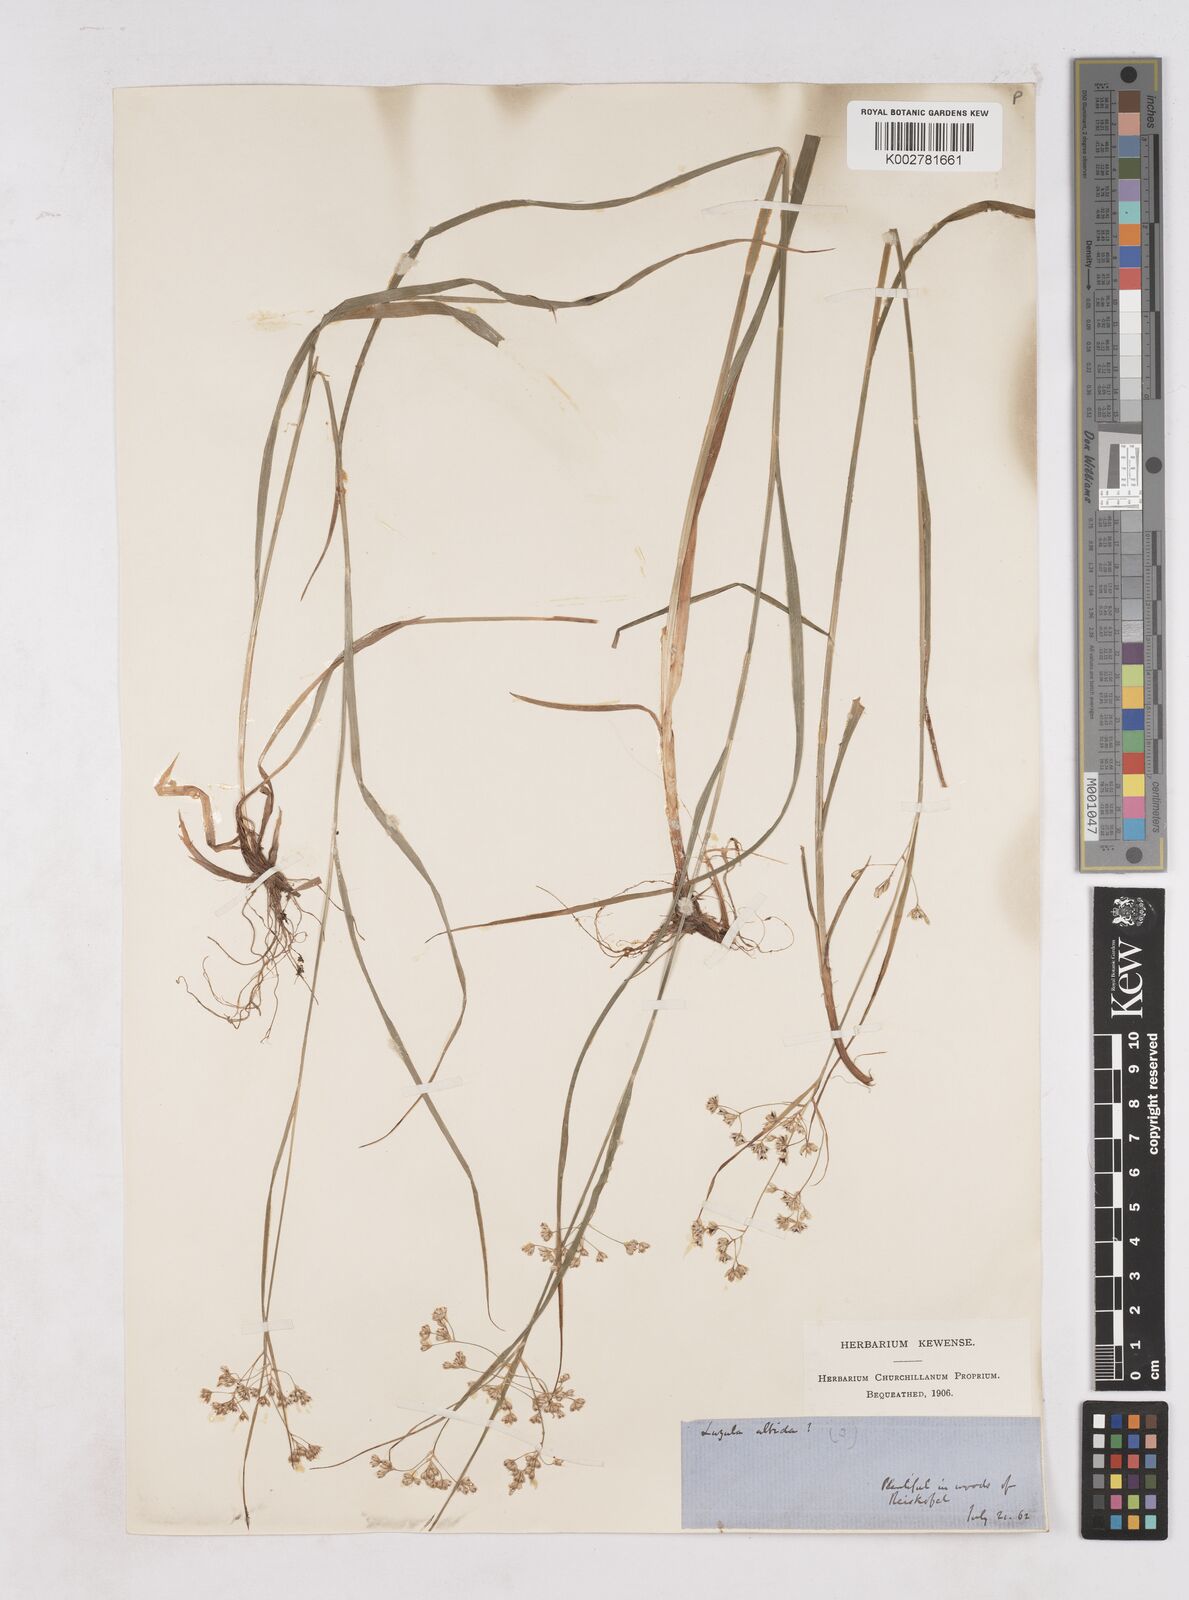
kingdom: Plantae
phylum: Tracheophyta
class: Liliopsida
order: Poales
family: Juncaceae
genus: Luzula
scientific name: Luzula luzuloides
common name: White wood-rush
